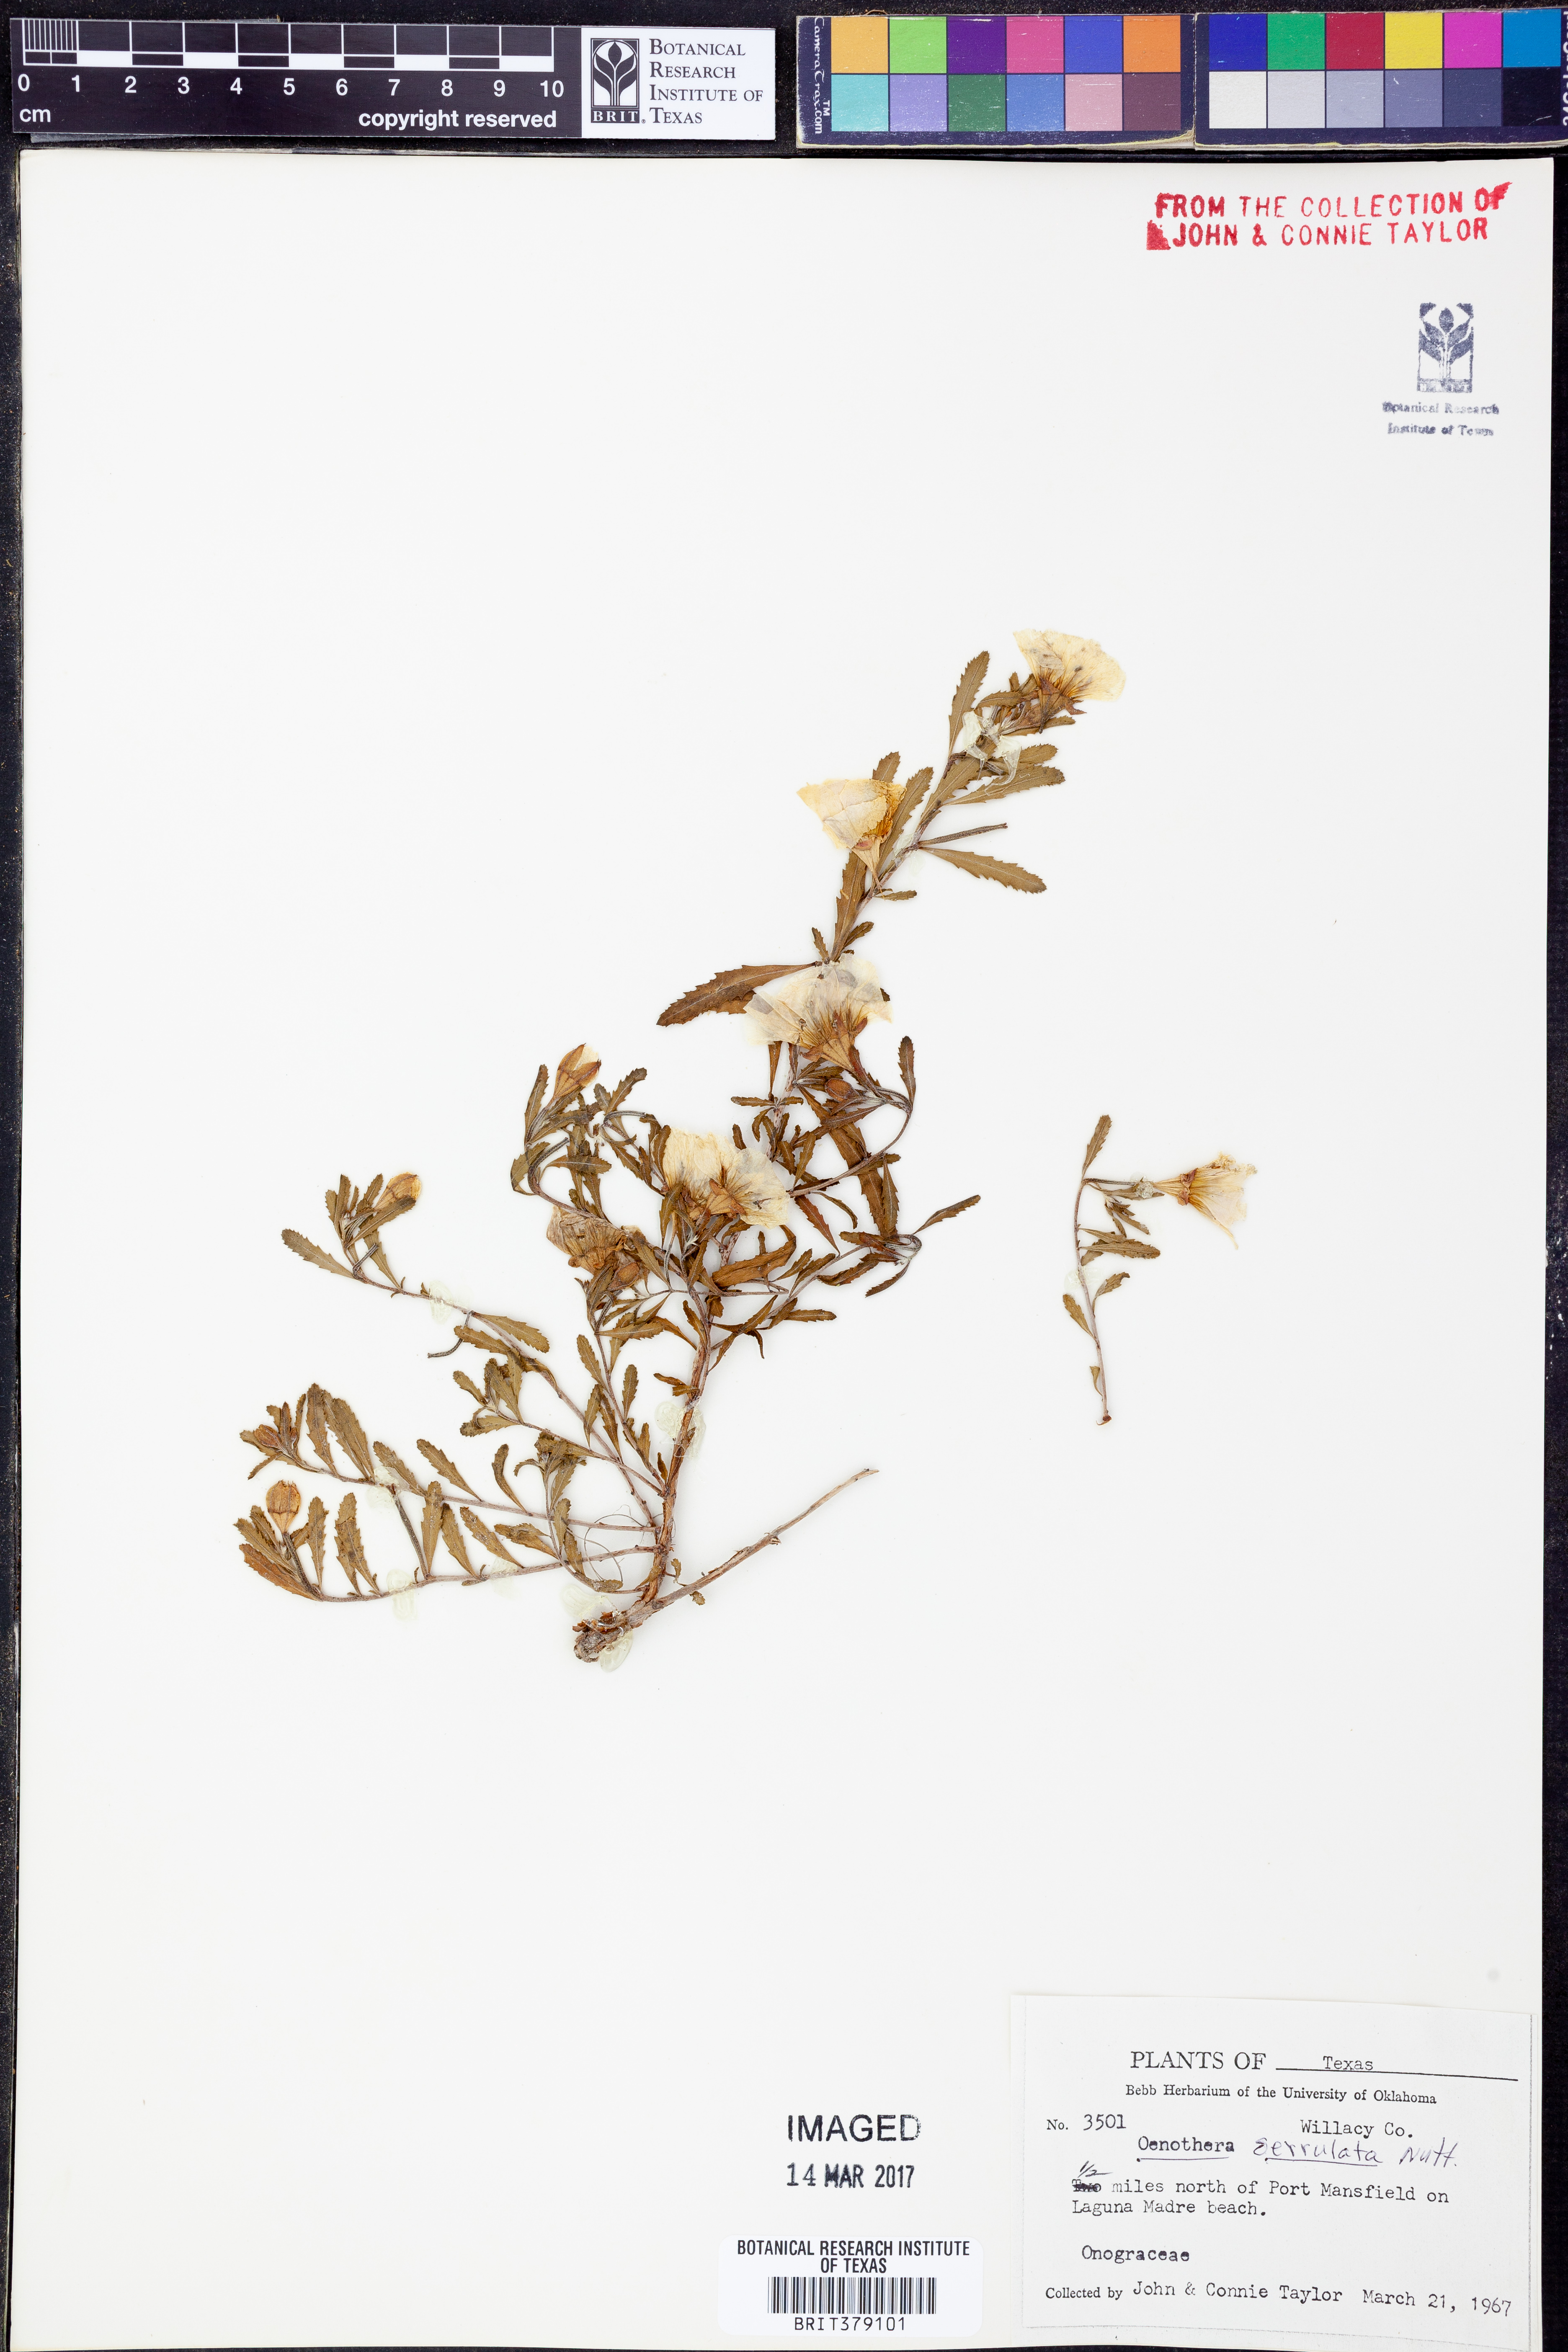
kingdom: Plantae
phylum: Tracheophyta
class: Magnoliopsida
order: Myrtales
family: Onagraceae
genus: Oenothera
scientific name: Oenothera serrulata
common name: Half-shrub calylophus
